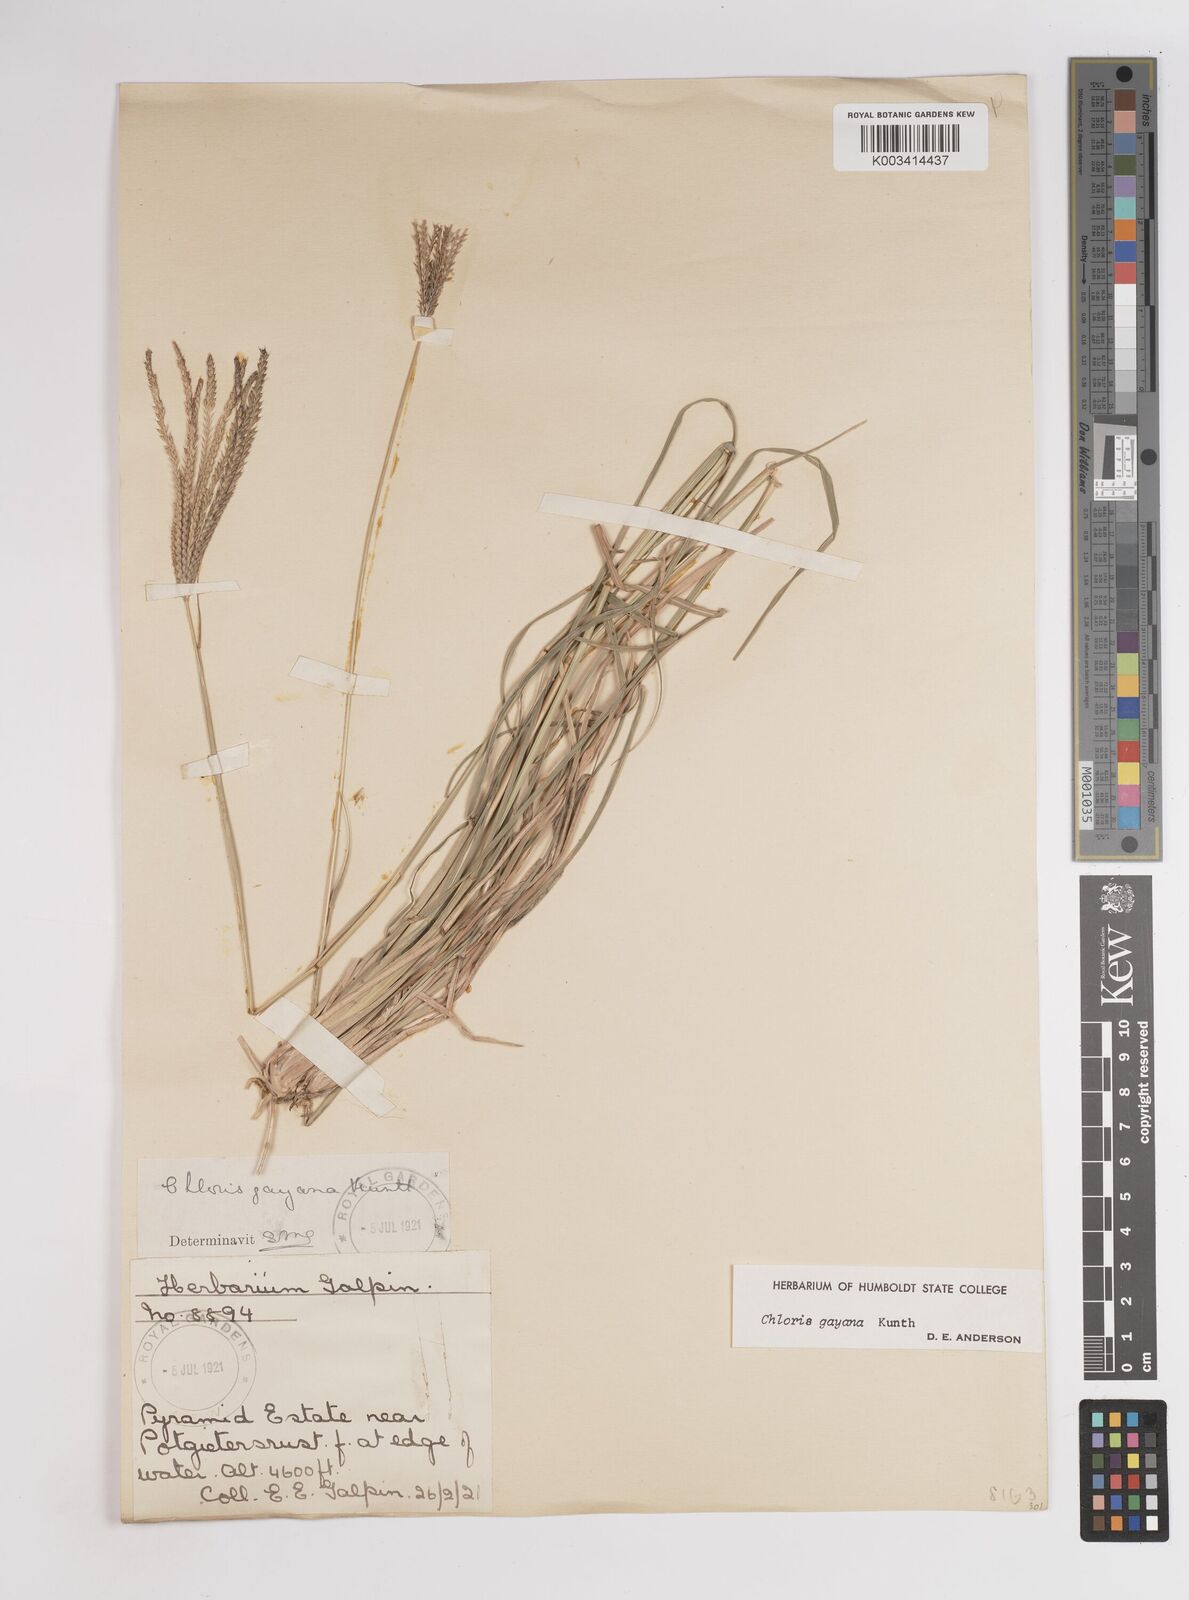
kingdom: Plantae
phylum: Tracheophyta
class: Liliopsida
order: Poales
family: Poaceae
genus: Chloris
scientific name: Chloris gayana
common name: Rhodes grass
